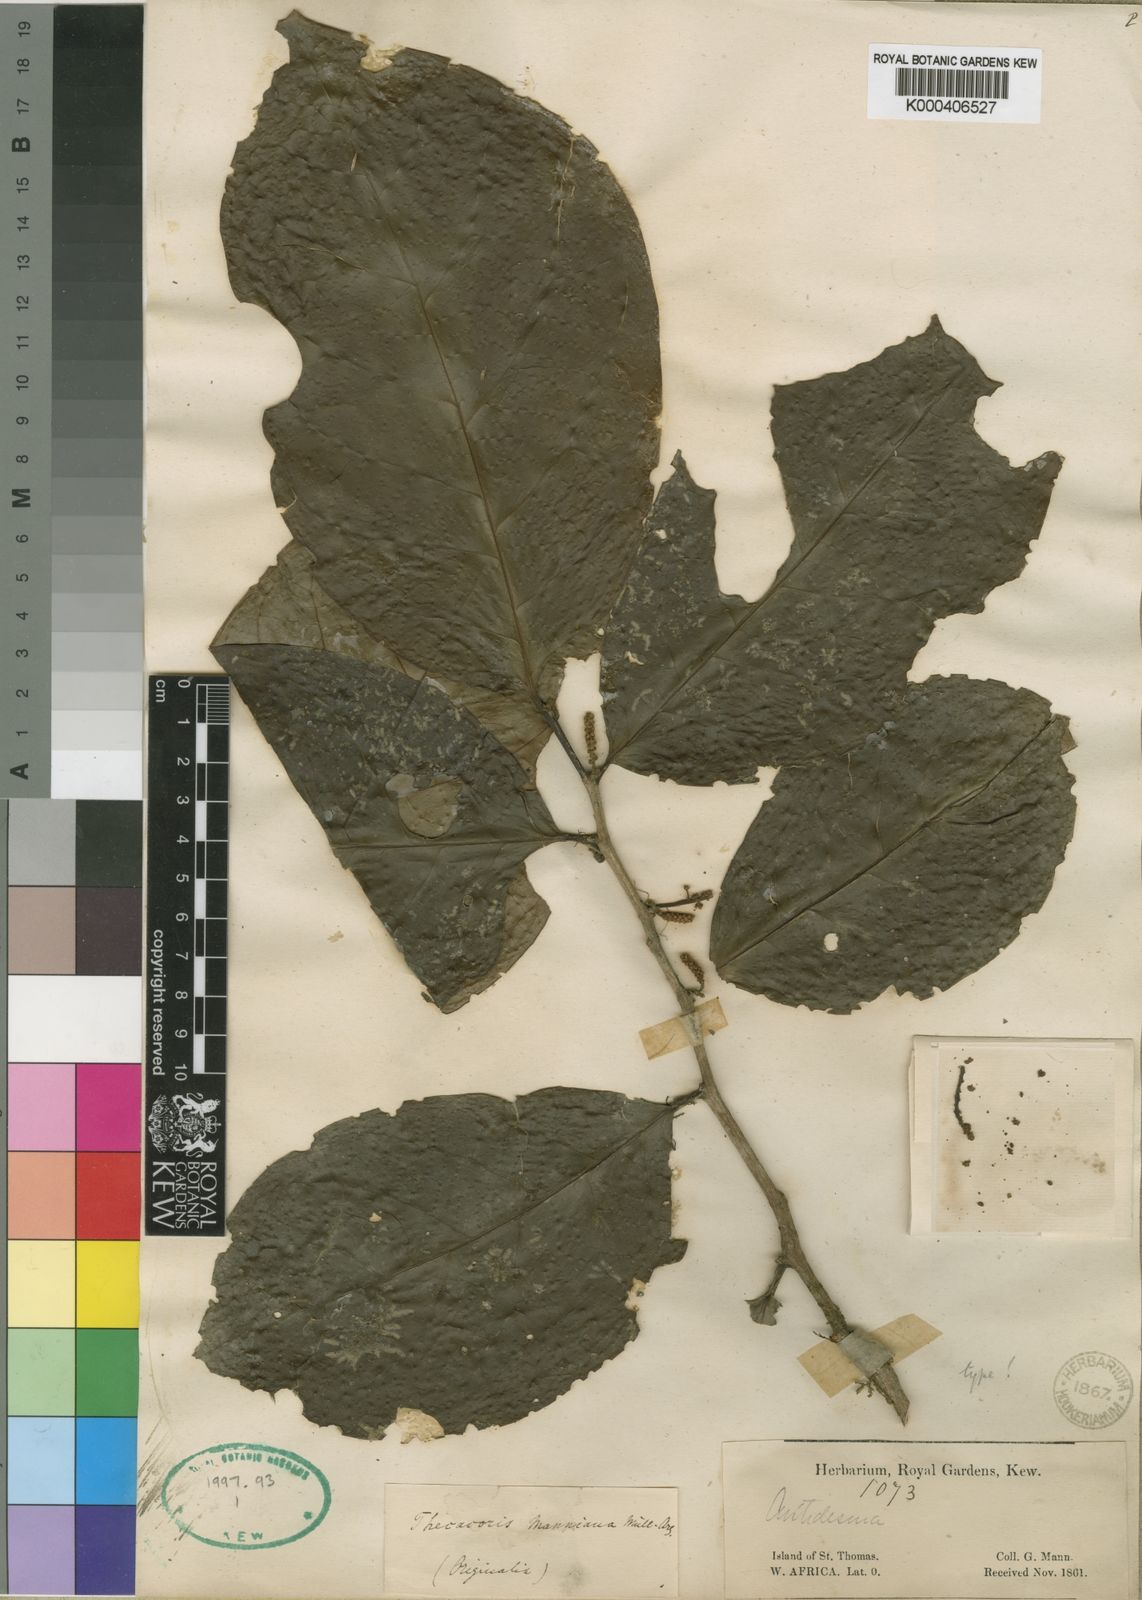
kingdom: Plantae
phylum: Tracheophyta
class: Magnoliopsida
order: Malpighiales
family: Phyllanthaceae
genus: Thecacoris
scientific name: Thecacoris
